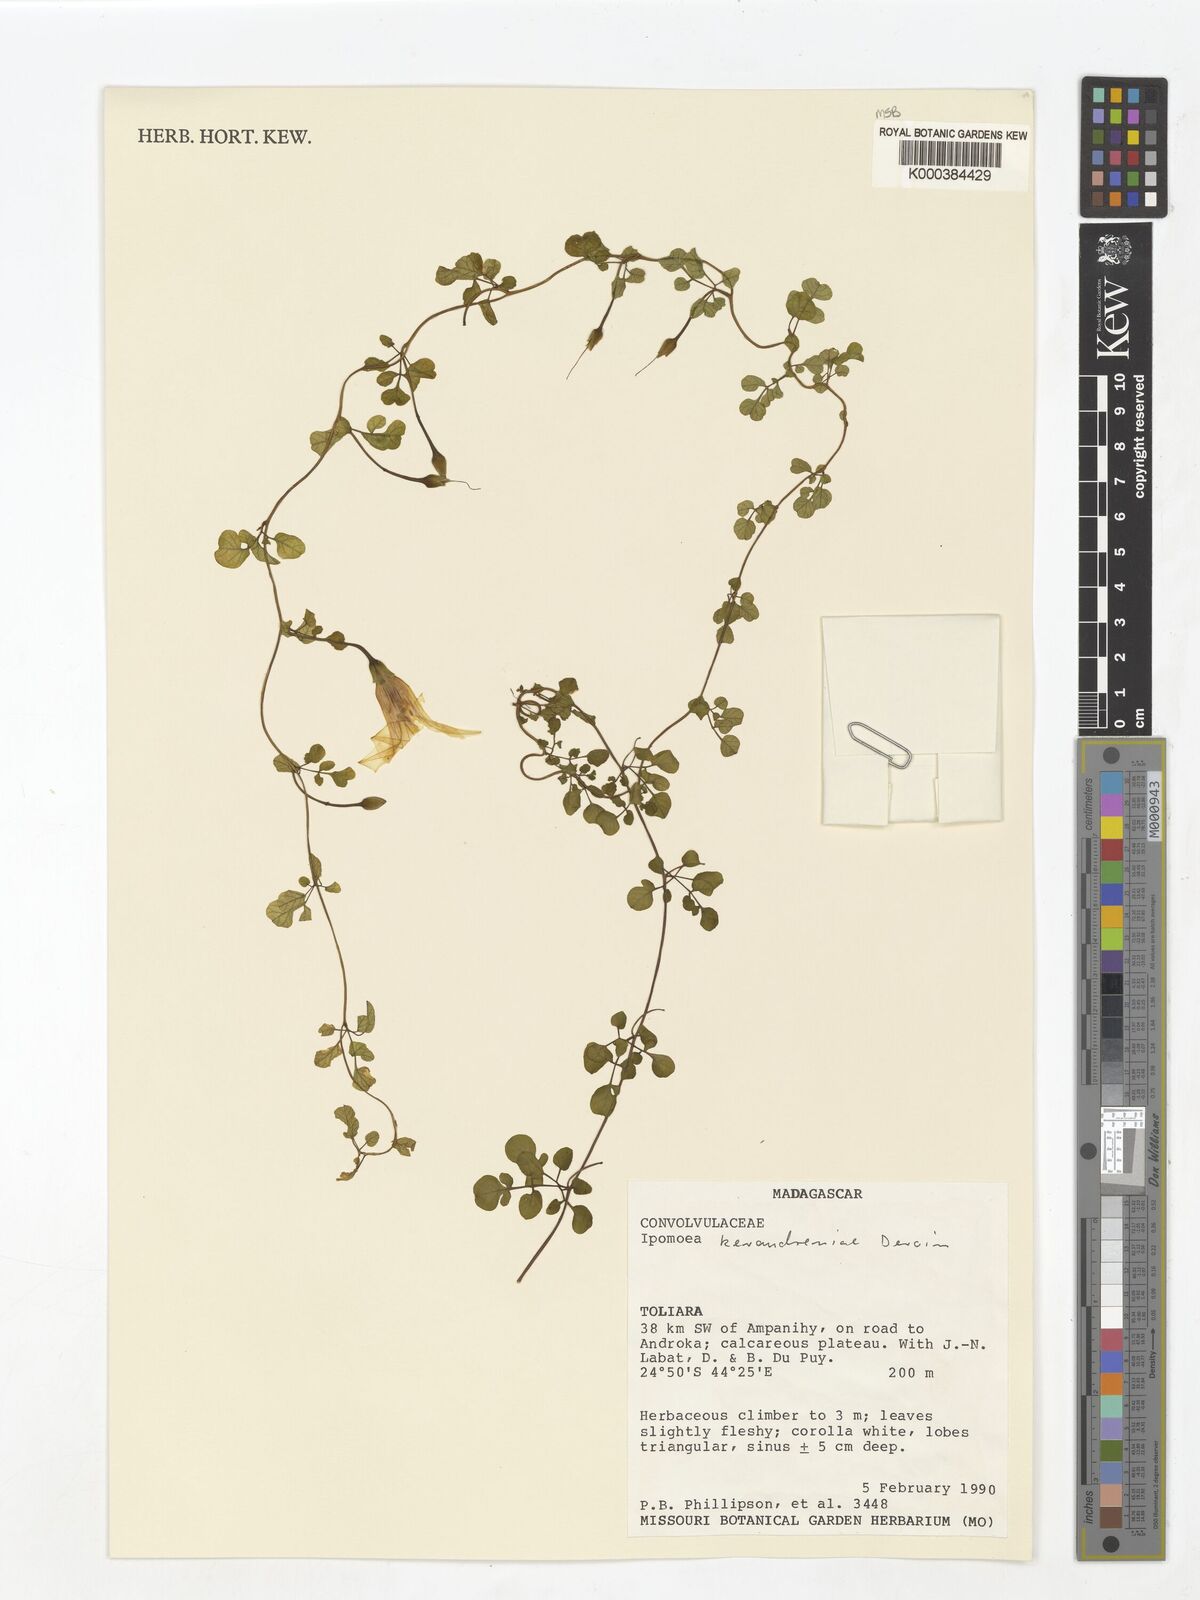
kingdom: Plantae
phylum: Tracheophyta
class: Magnoliopsida
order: Solanales
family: Convolvulaceae
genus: Ipomoea
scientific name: Ipomoea keraudreniae
